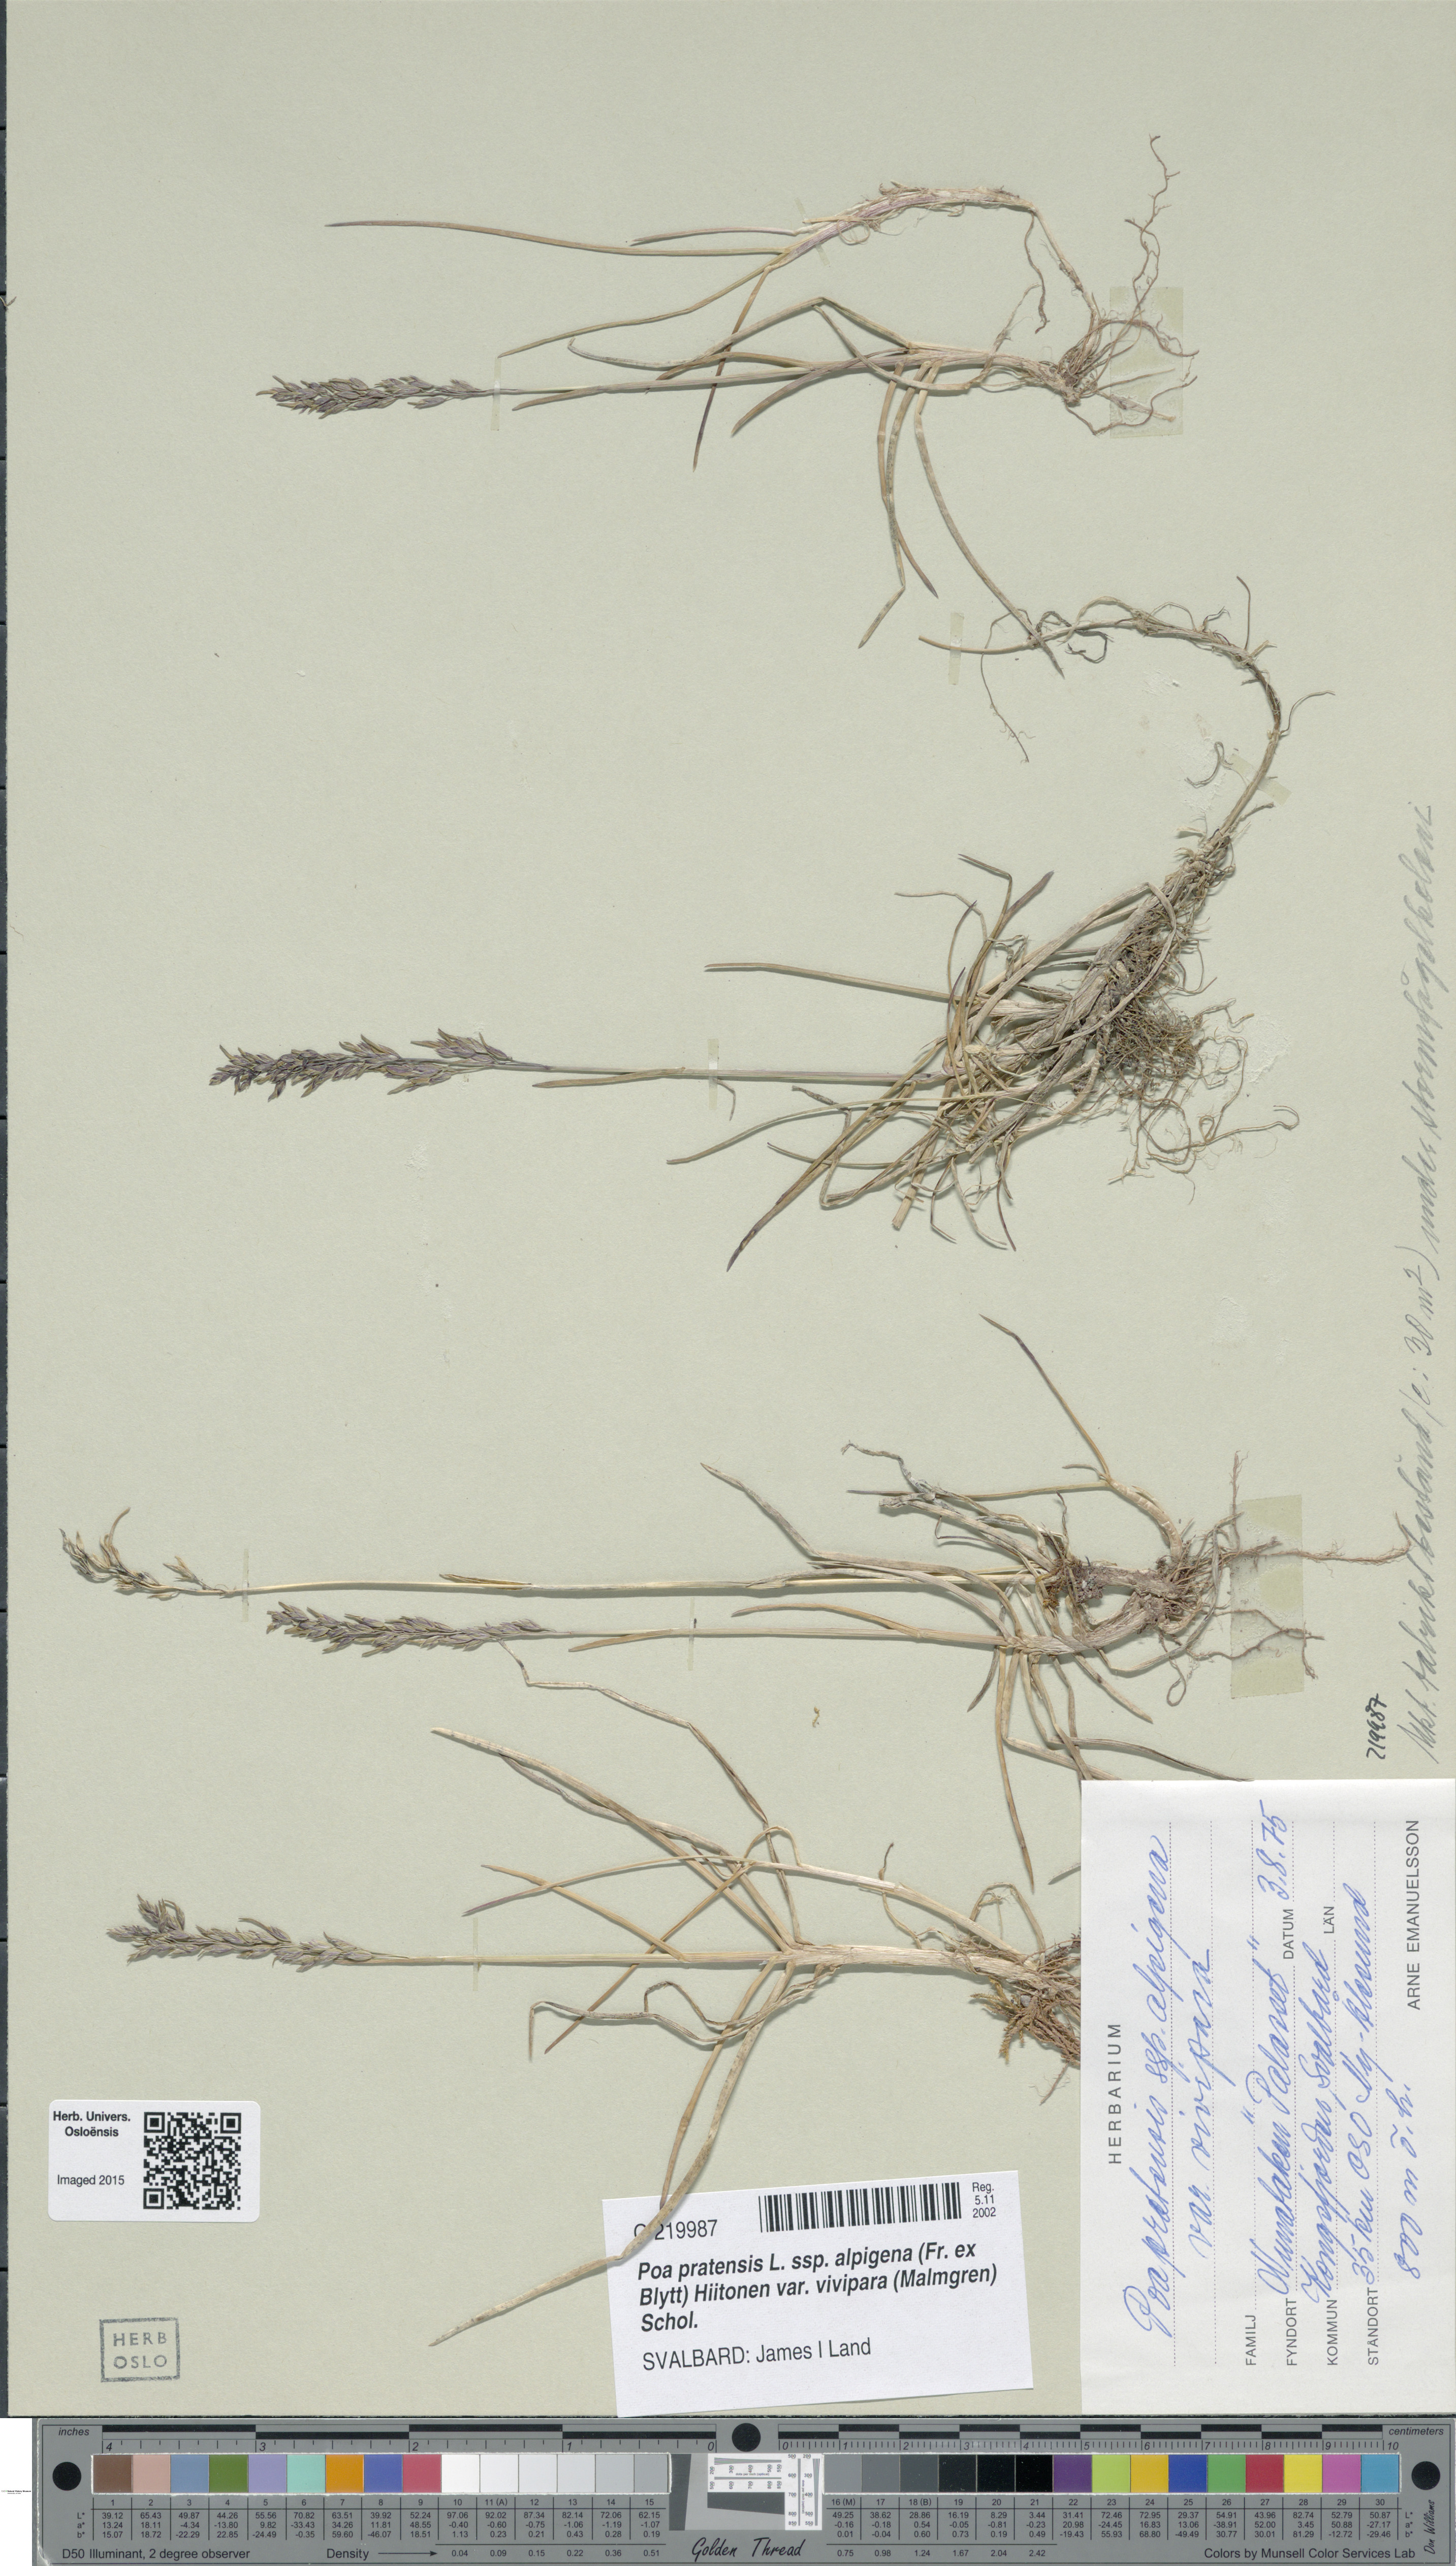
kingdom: Plantae
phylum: Tracheophyta
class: Liliopsida
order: Poales
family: Poaceae
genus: Poa
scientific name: Poa arctica
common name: Arctic bluegrass
